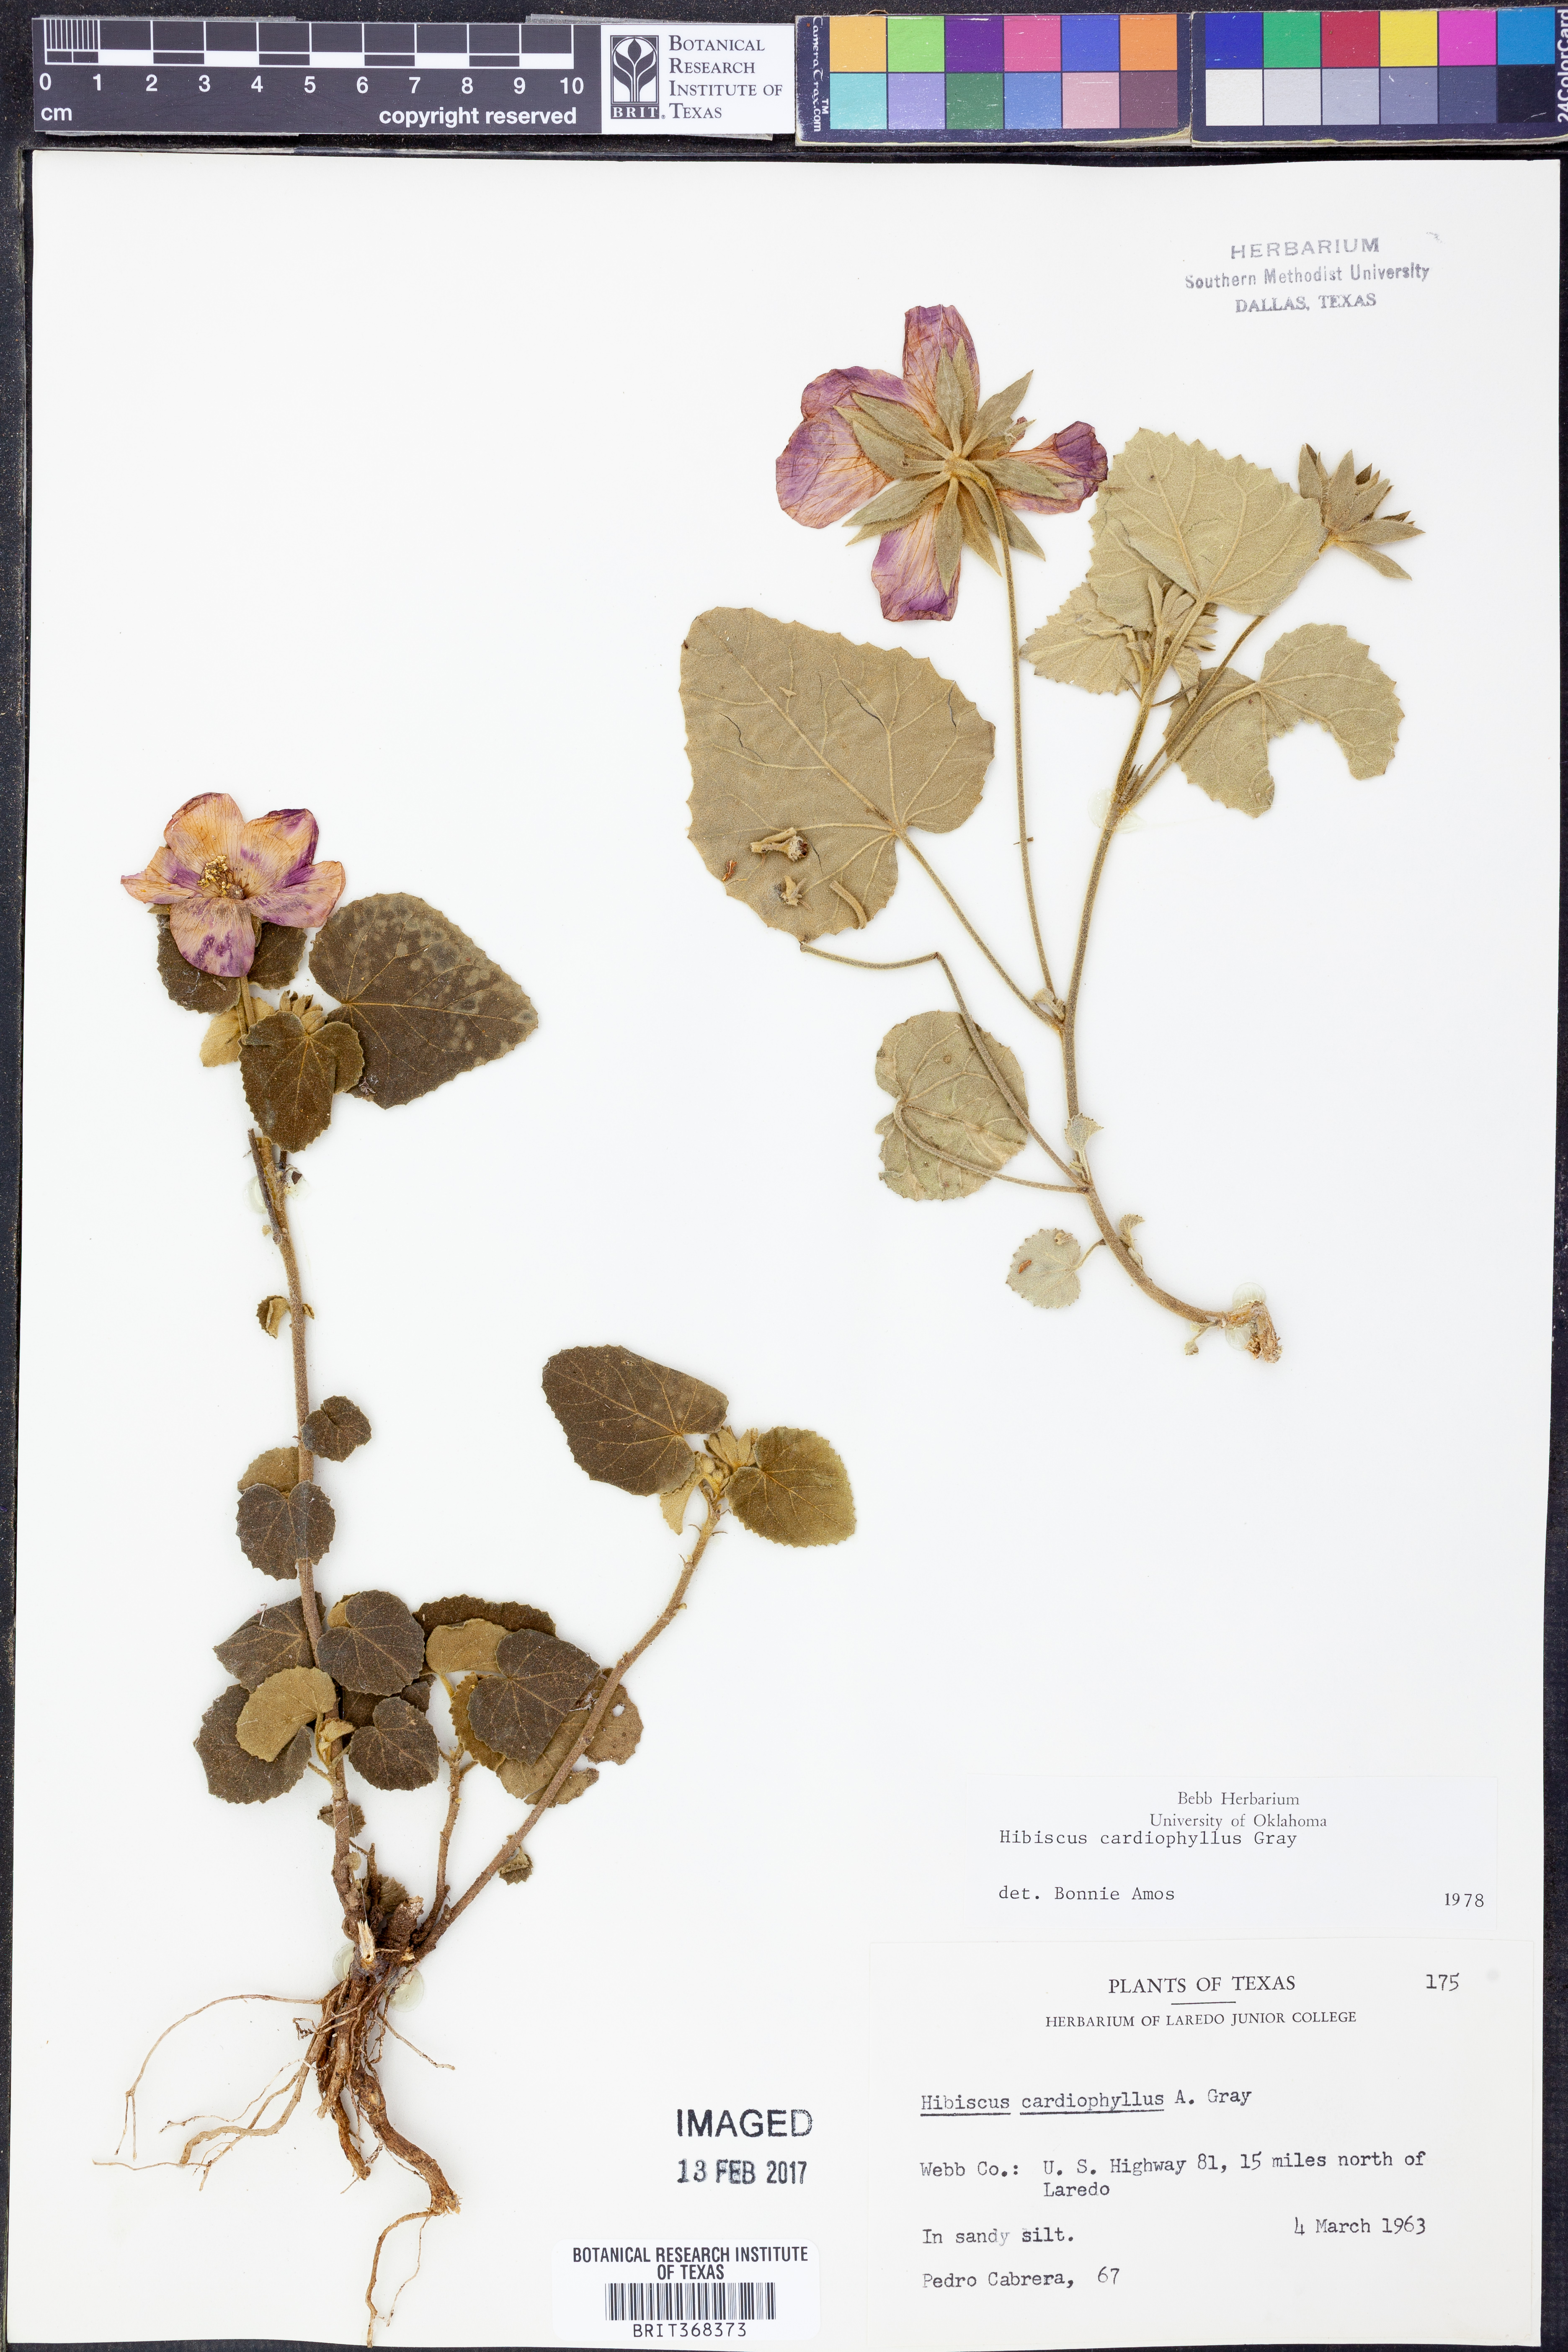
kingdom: Plantae
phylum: Tracheophyta
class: Magnoliopsida
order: Malvales
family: Malvaceae
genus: Abelmoschus
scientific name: Abelmoschus moschatus
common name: Musk okra
